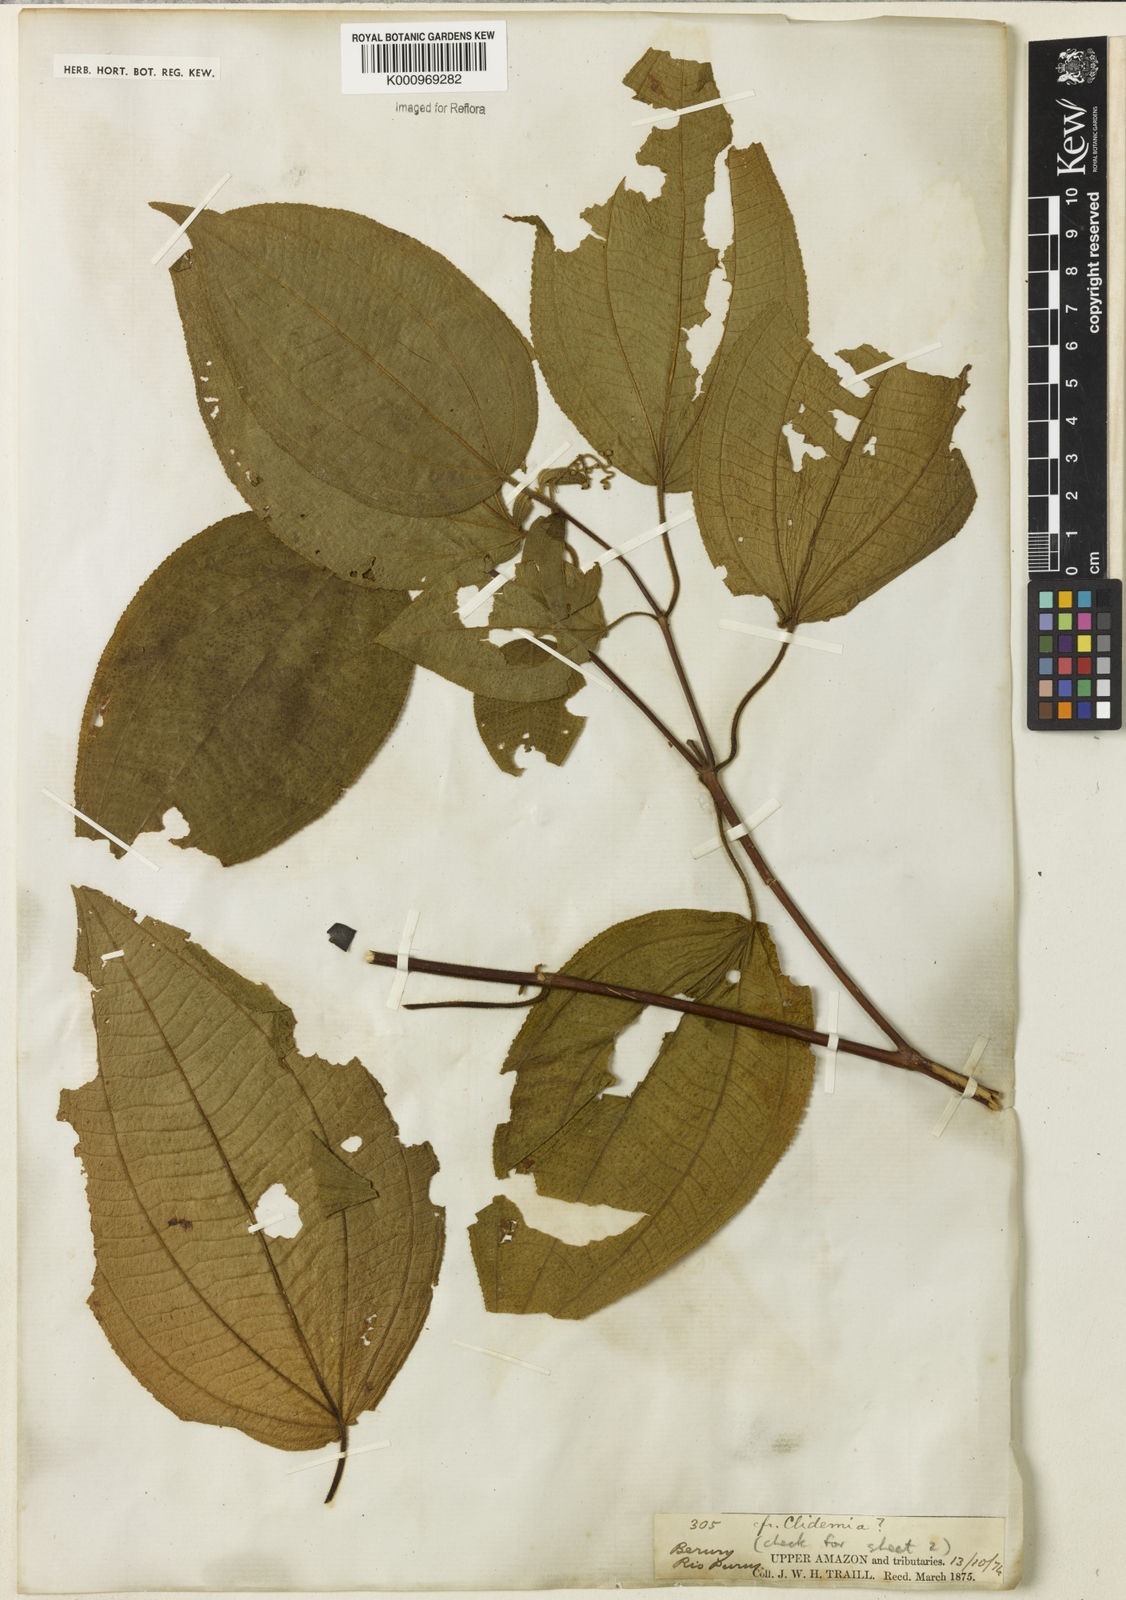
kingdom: Plantae
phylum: Tracheophyta
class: Magnoliopsida
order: Myrtales
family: Melastomataceae
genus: Miconia
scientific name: Miconia
